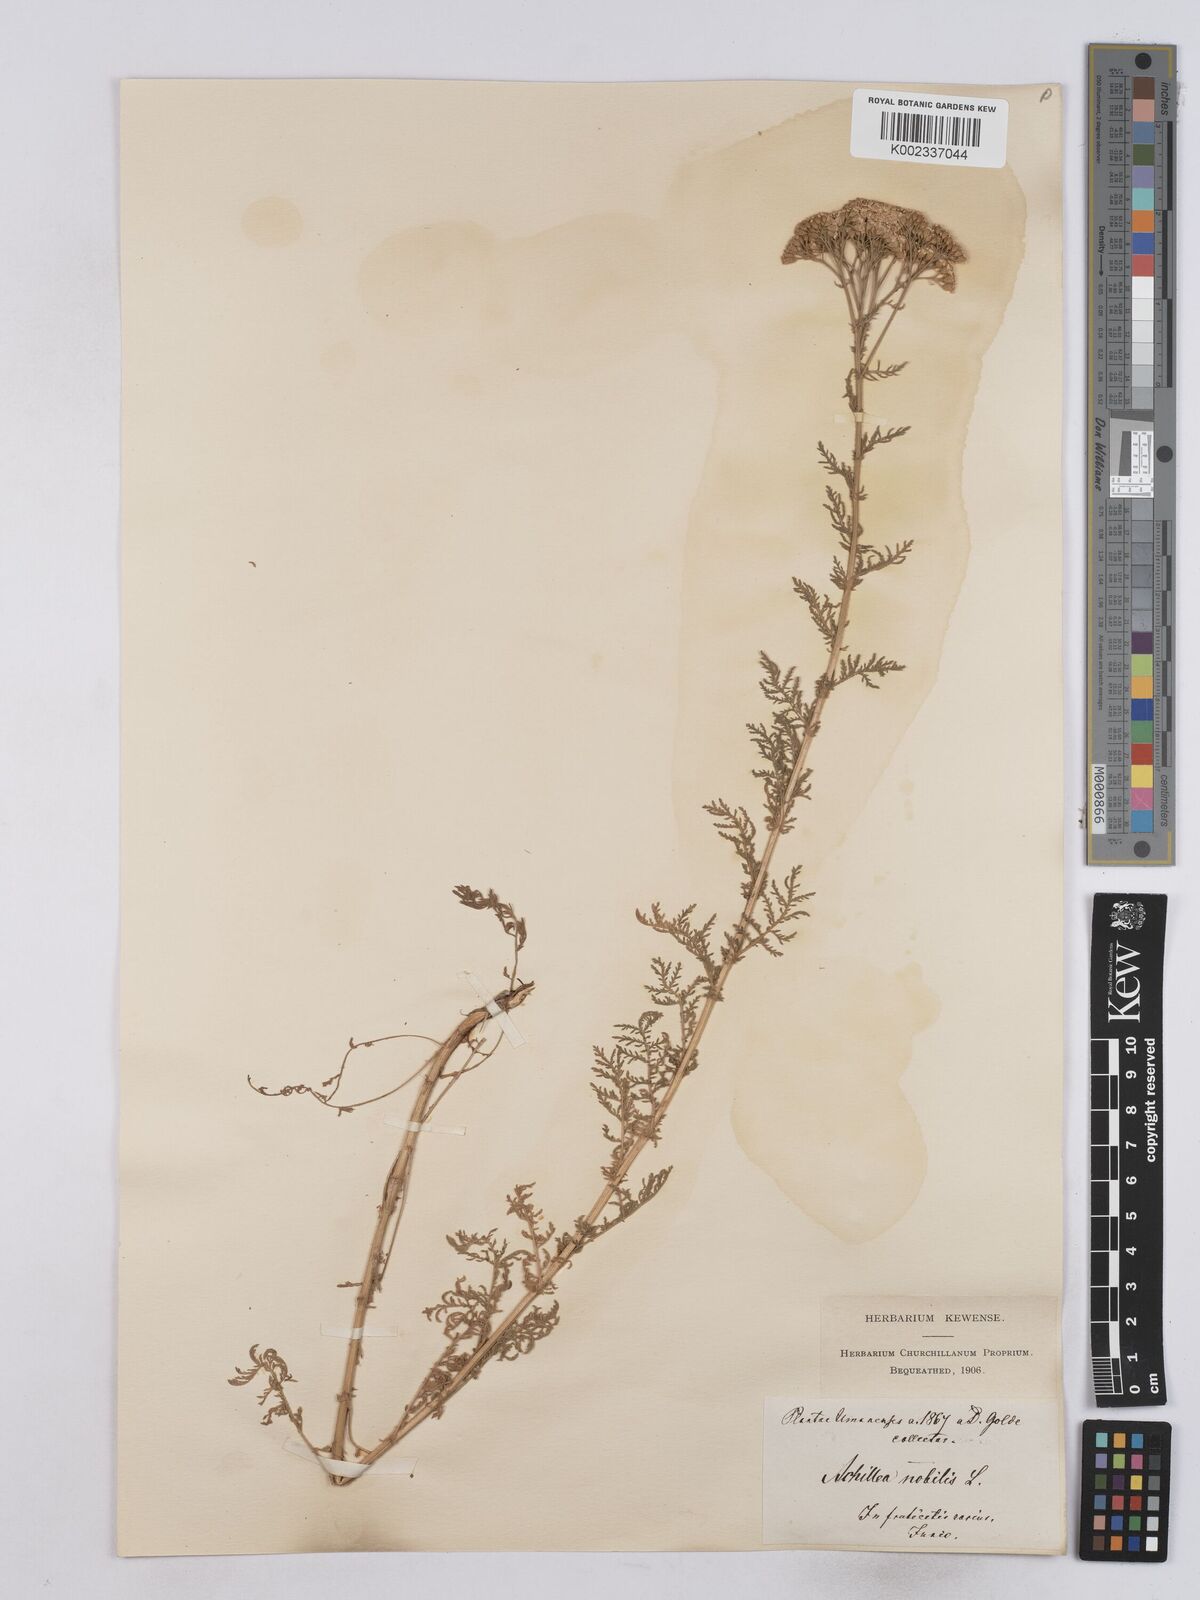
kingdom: Plantae
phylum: Tracheophyta
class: Magnoliopsida
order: Asterales
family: Asteraceae
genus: Achillea
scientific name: Achillea nobilis
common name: Noble yarrow
